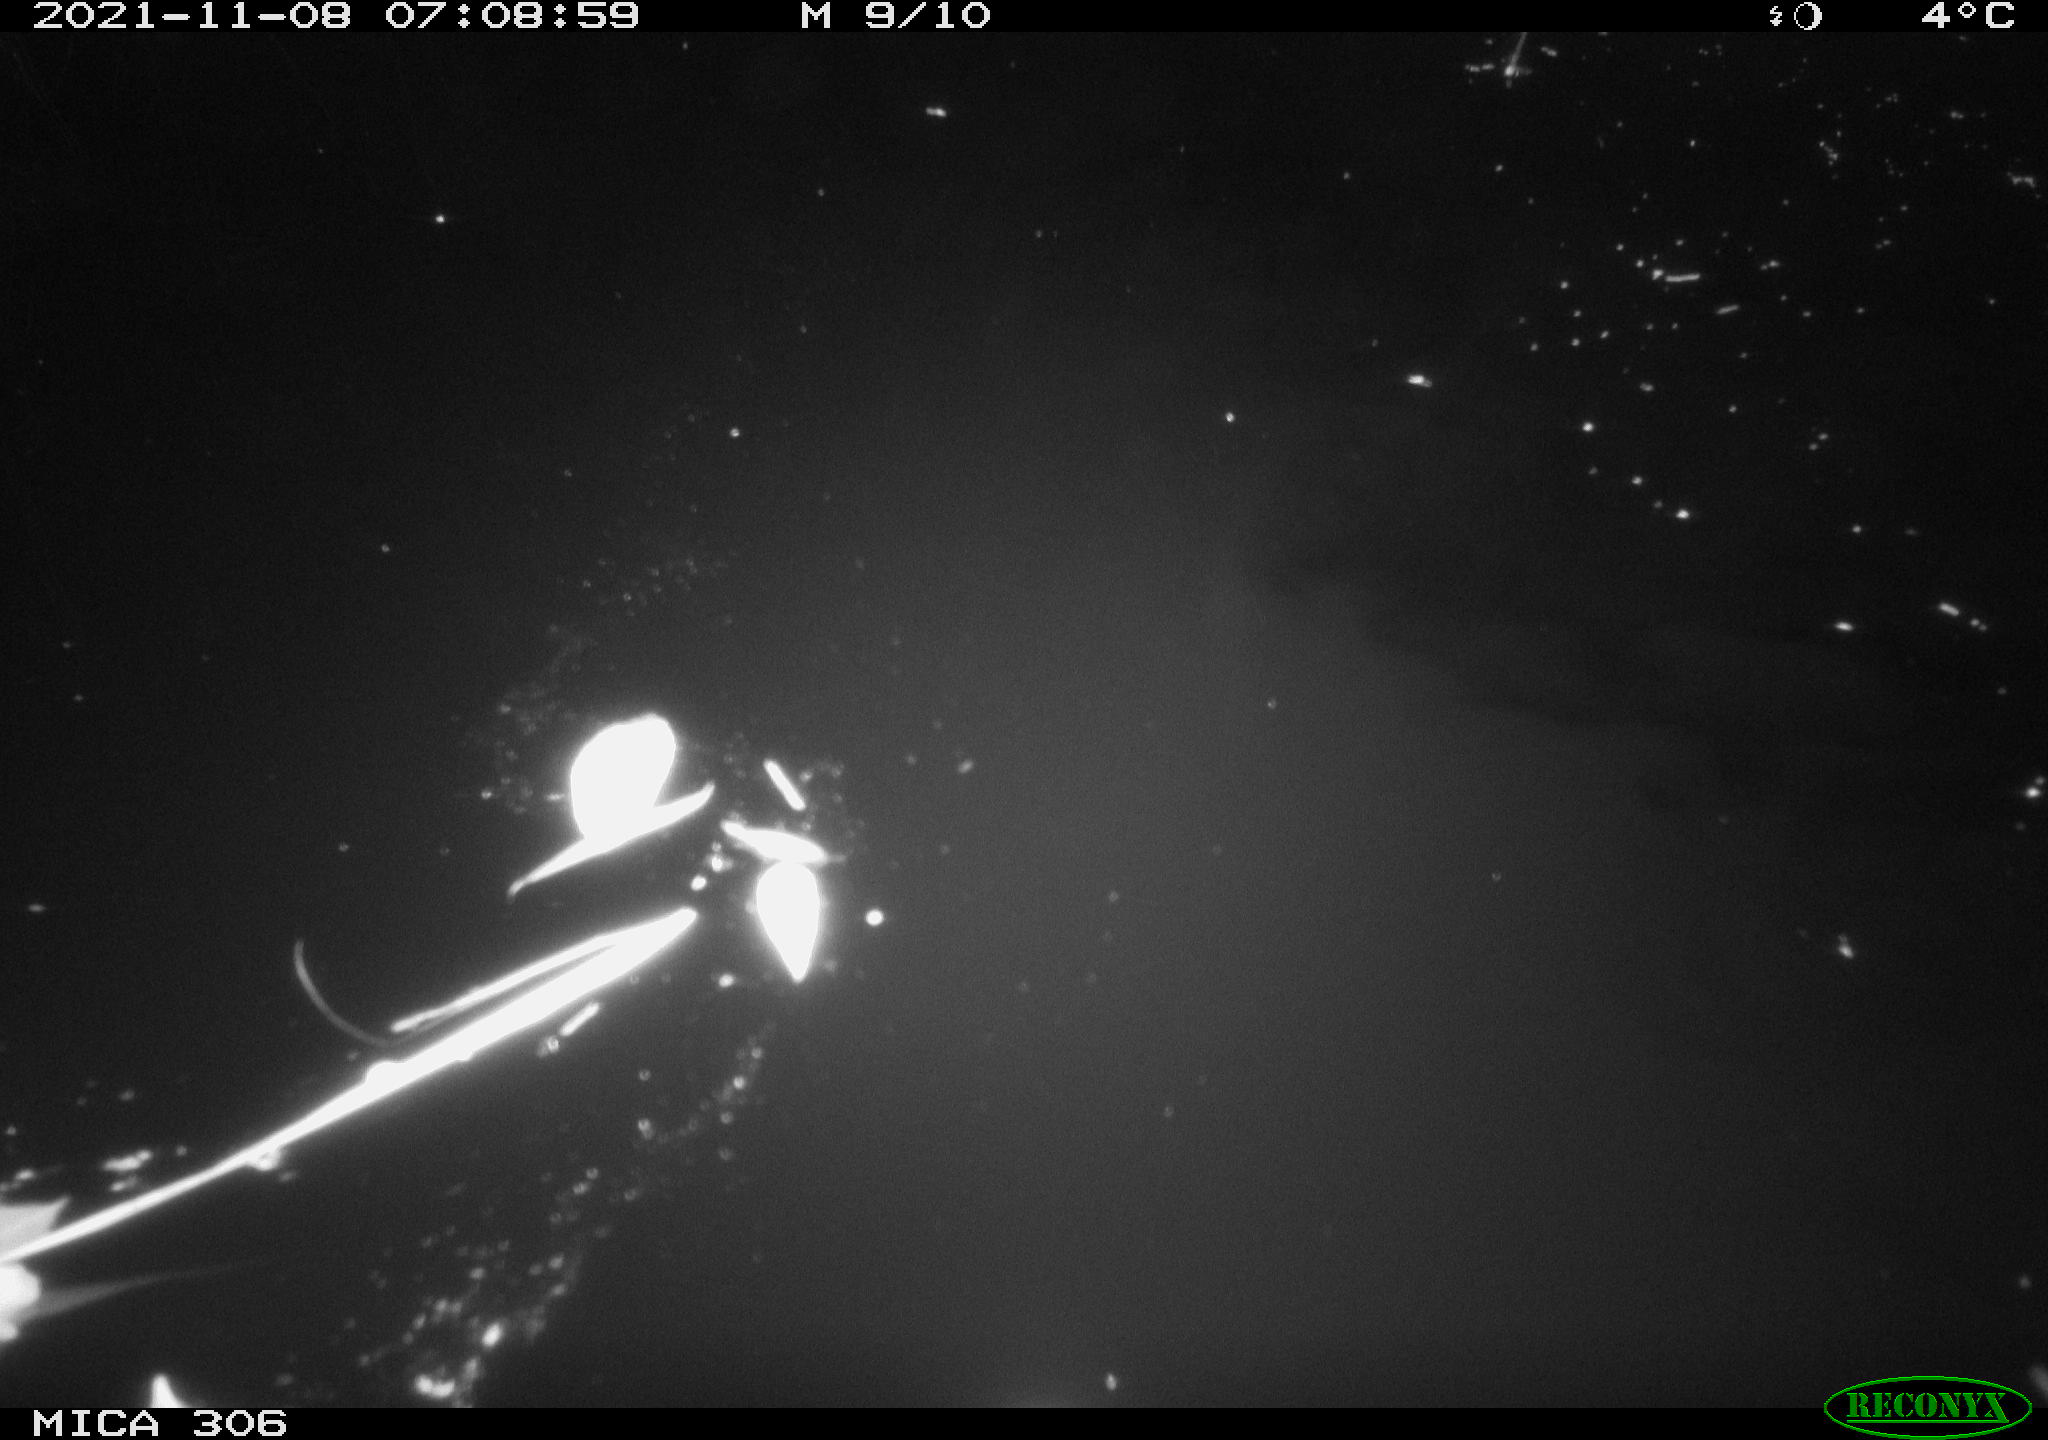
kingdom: Animalia
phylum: Chordata
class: Aves
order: Anseriformes
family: Anatidae
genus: Anas
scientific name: Anas
